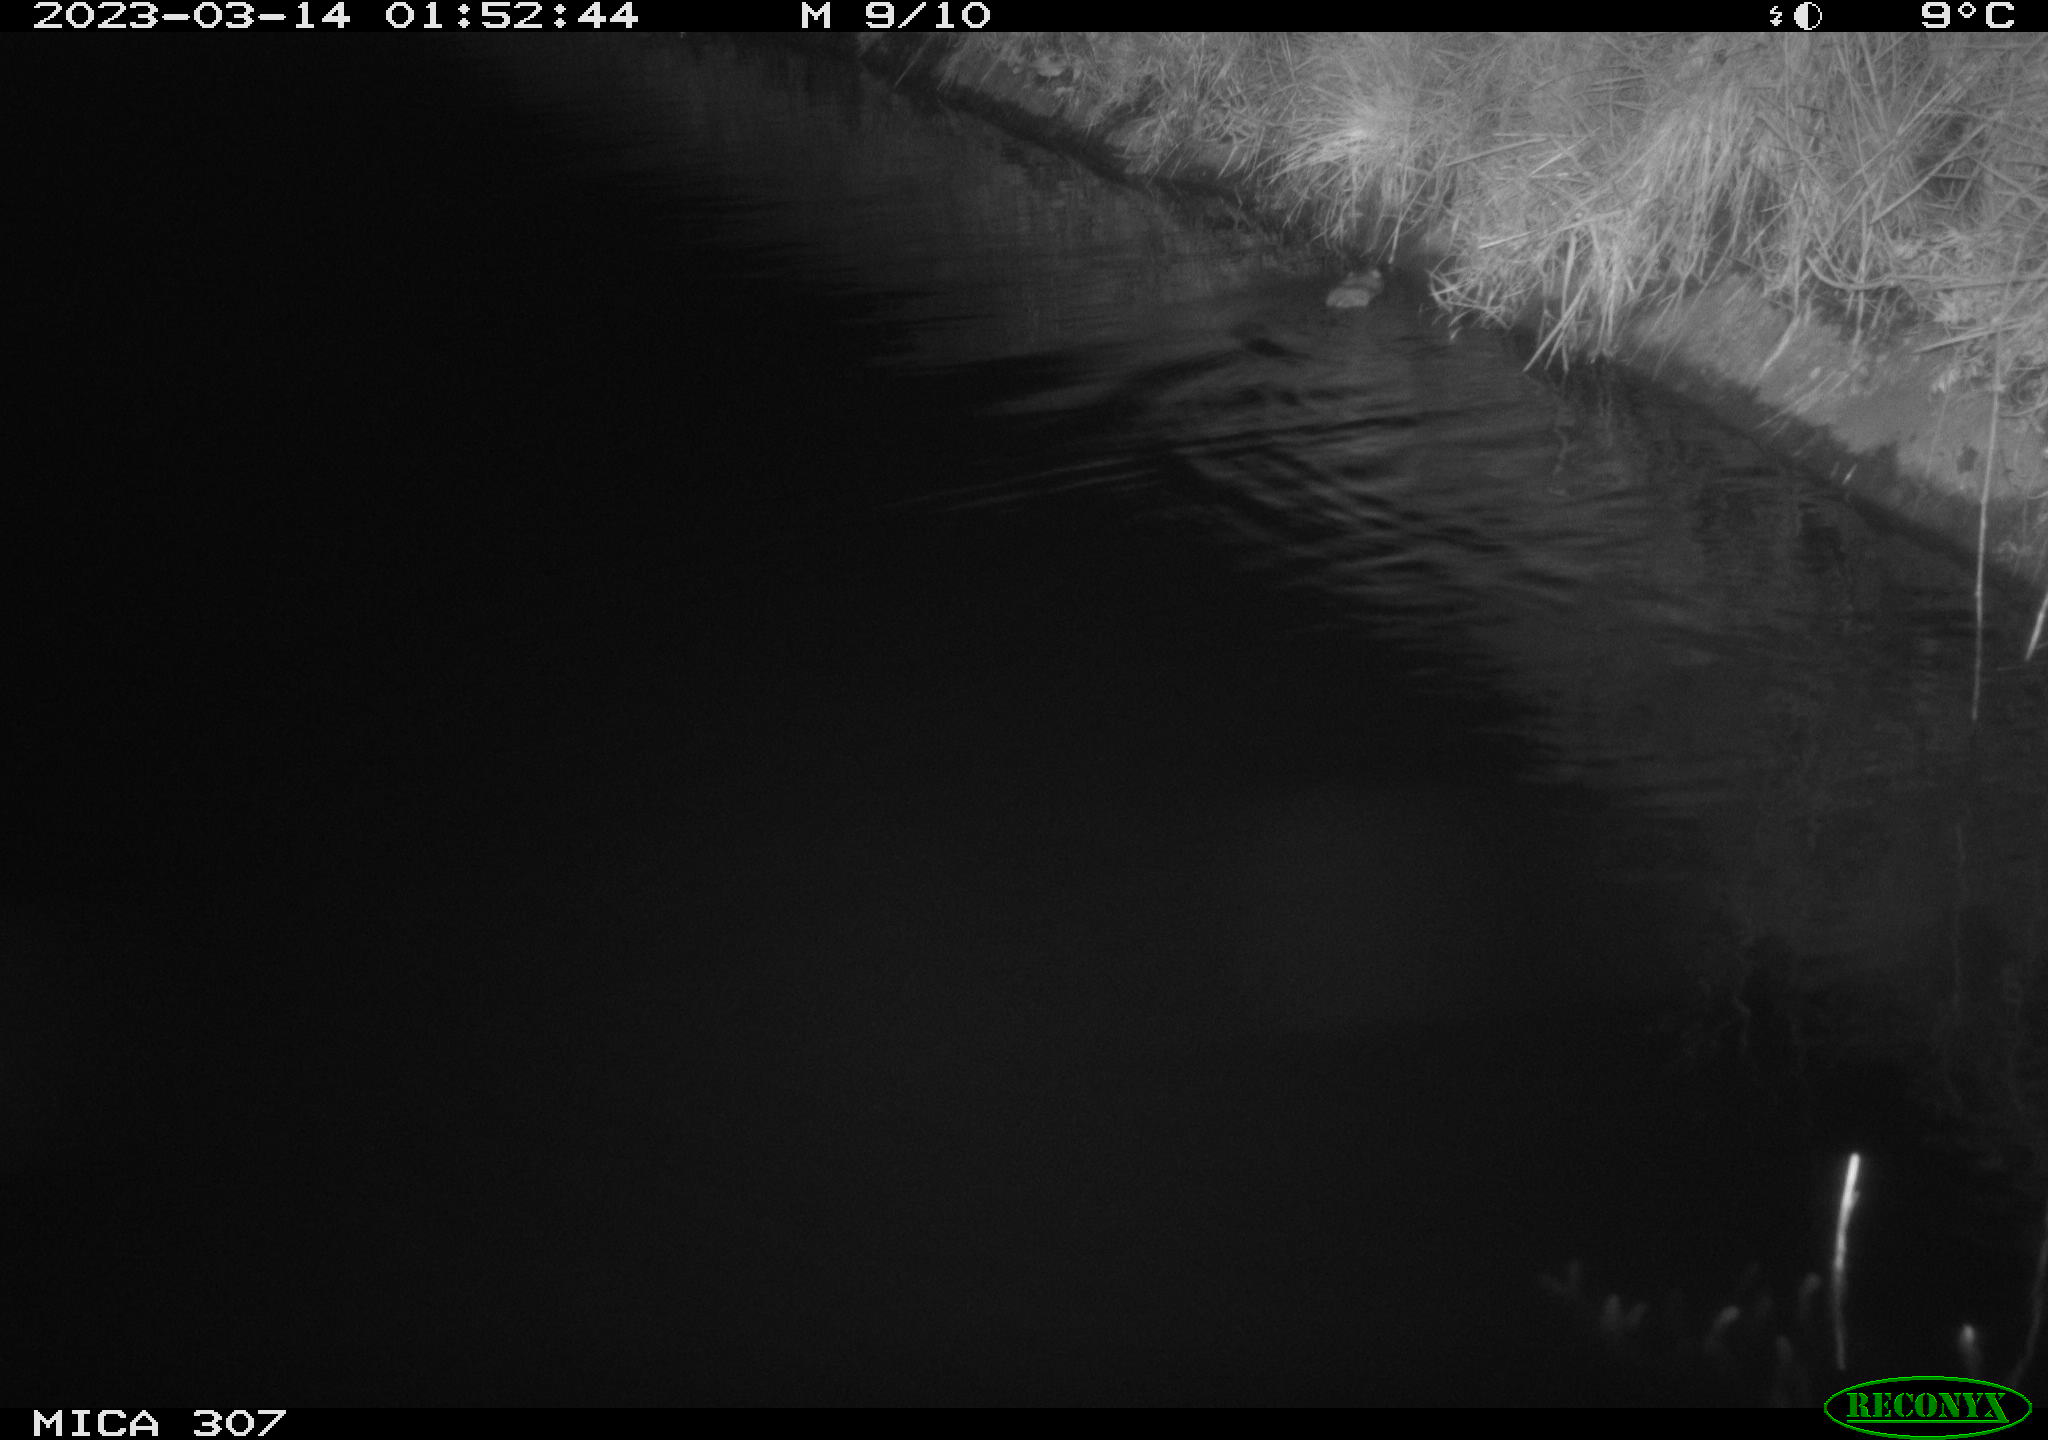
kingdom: Animalia
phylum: Chordata
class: Mammalia
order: Rodentia
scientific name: Rodentia
